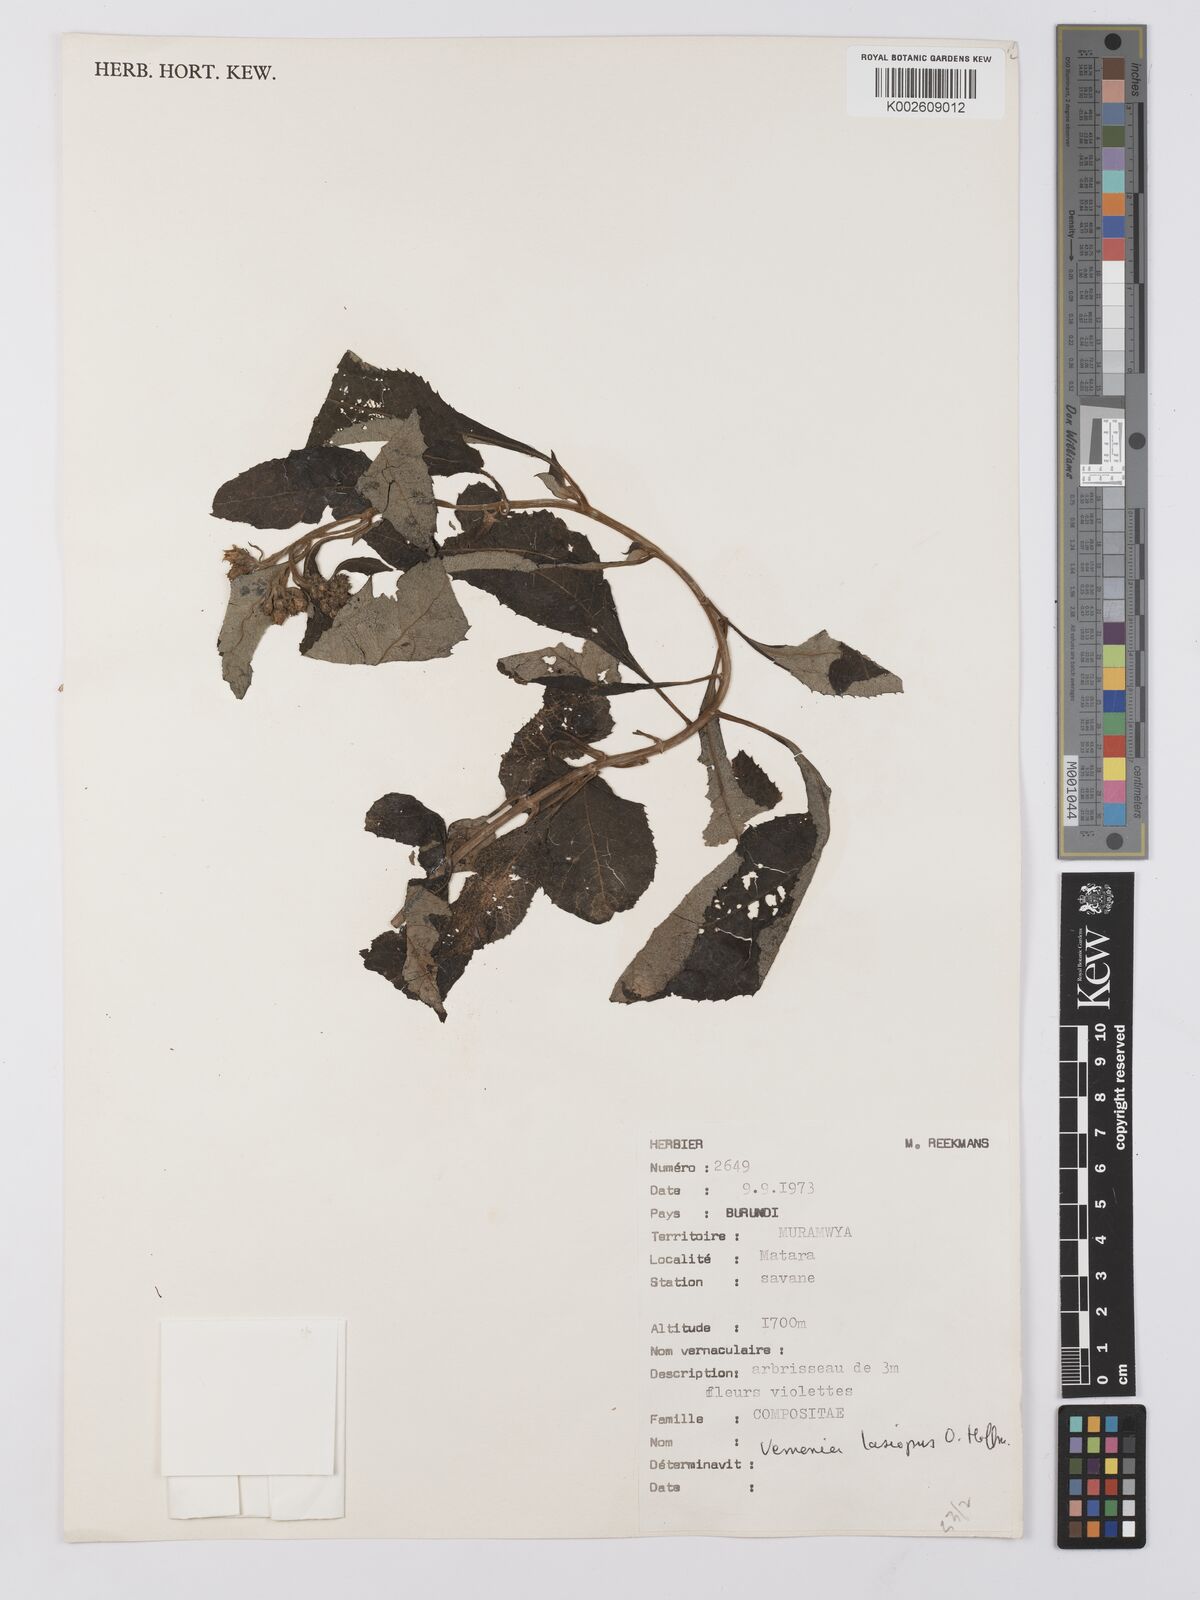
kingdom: Plantae
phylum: Tracheophyta
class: Magnoliopsida
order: Asterales
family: Asteraceae
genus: Baccharoides
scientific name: Baccharoides kirungae
